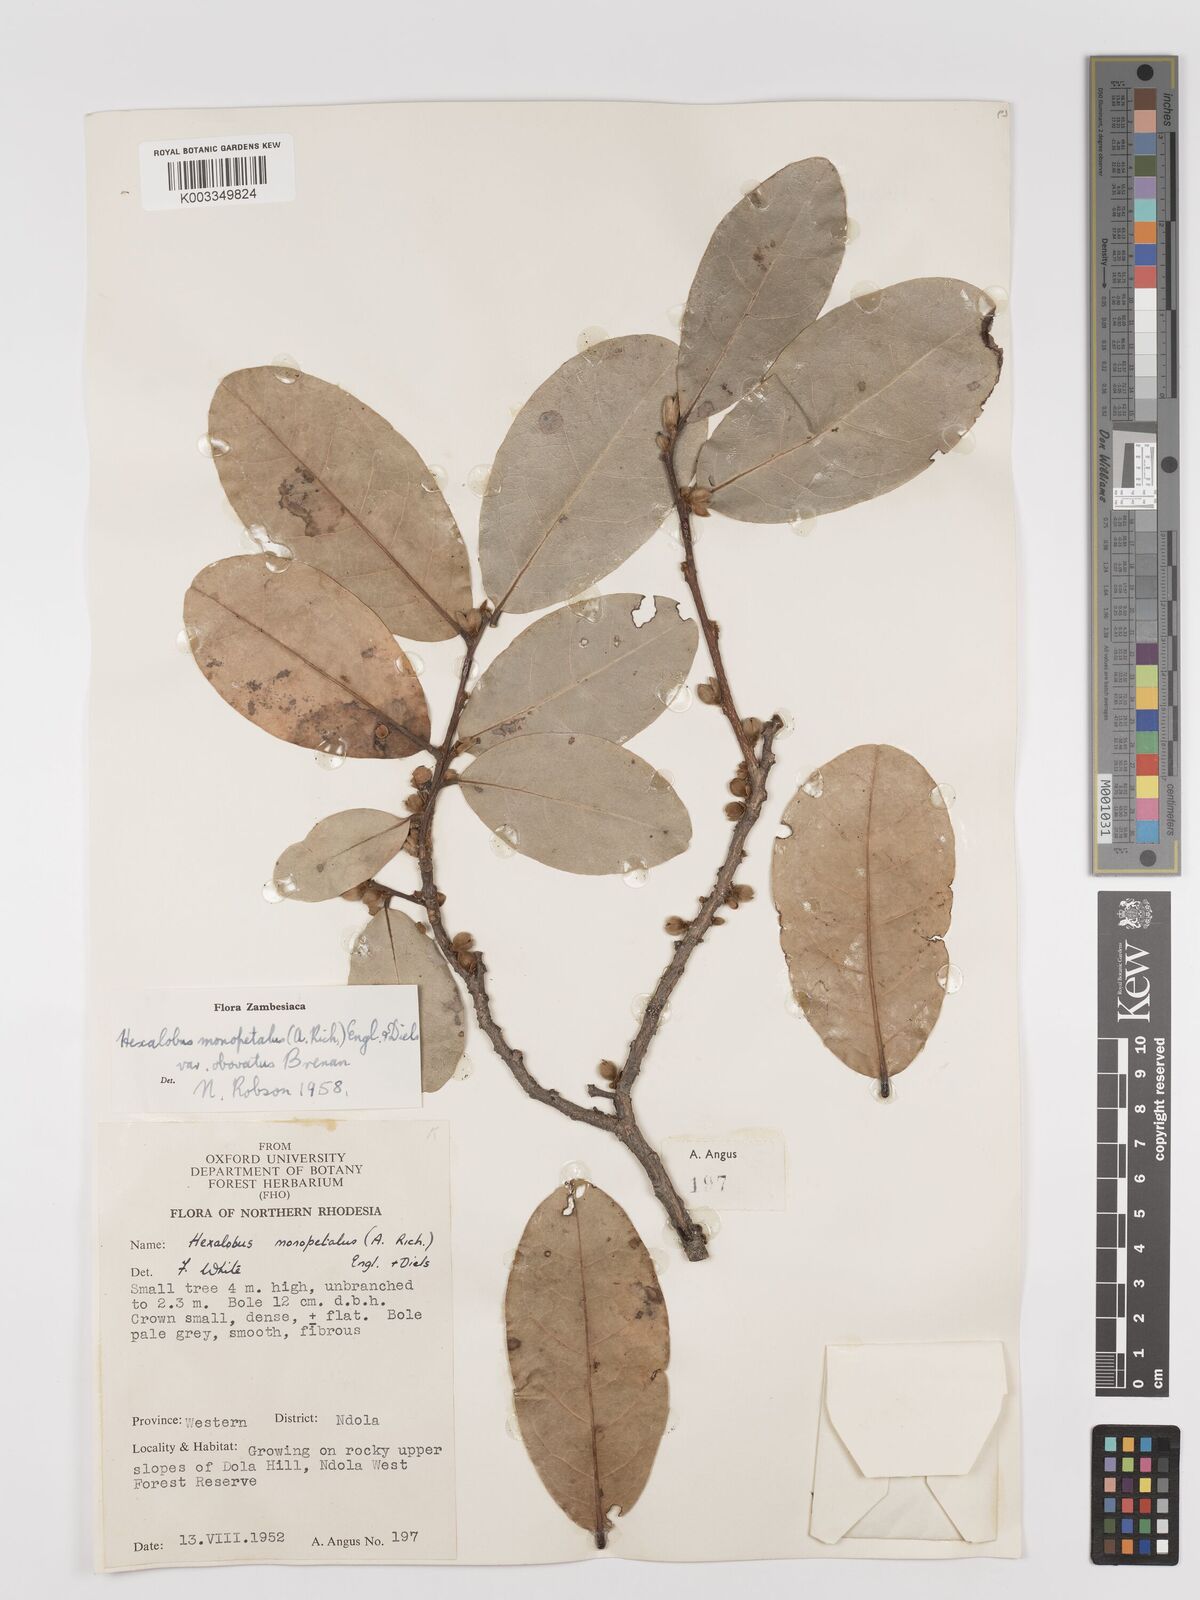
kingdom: Plantae
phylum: Tracheophyta
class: Magnoliopsida
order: Magnoliales
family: Annonaceae
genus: Hexalobus
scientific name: Hexalobus monopetalus
